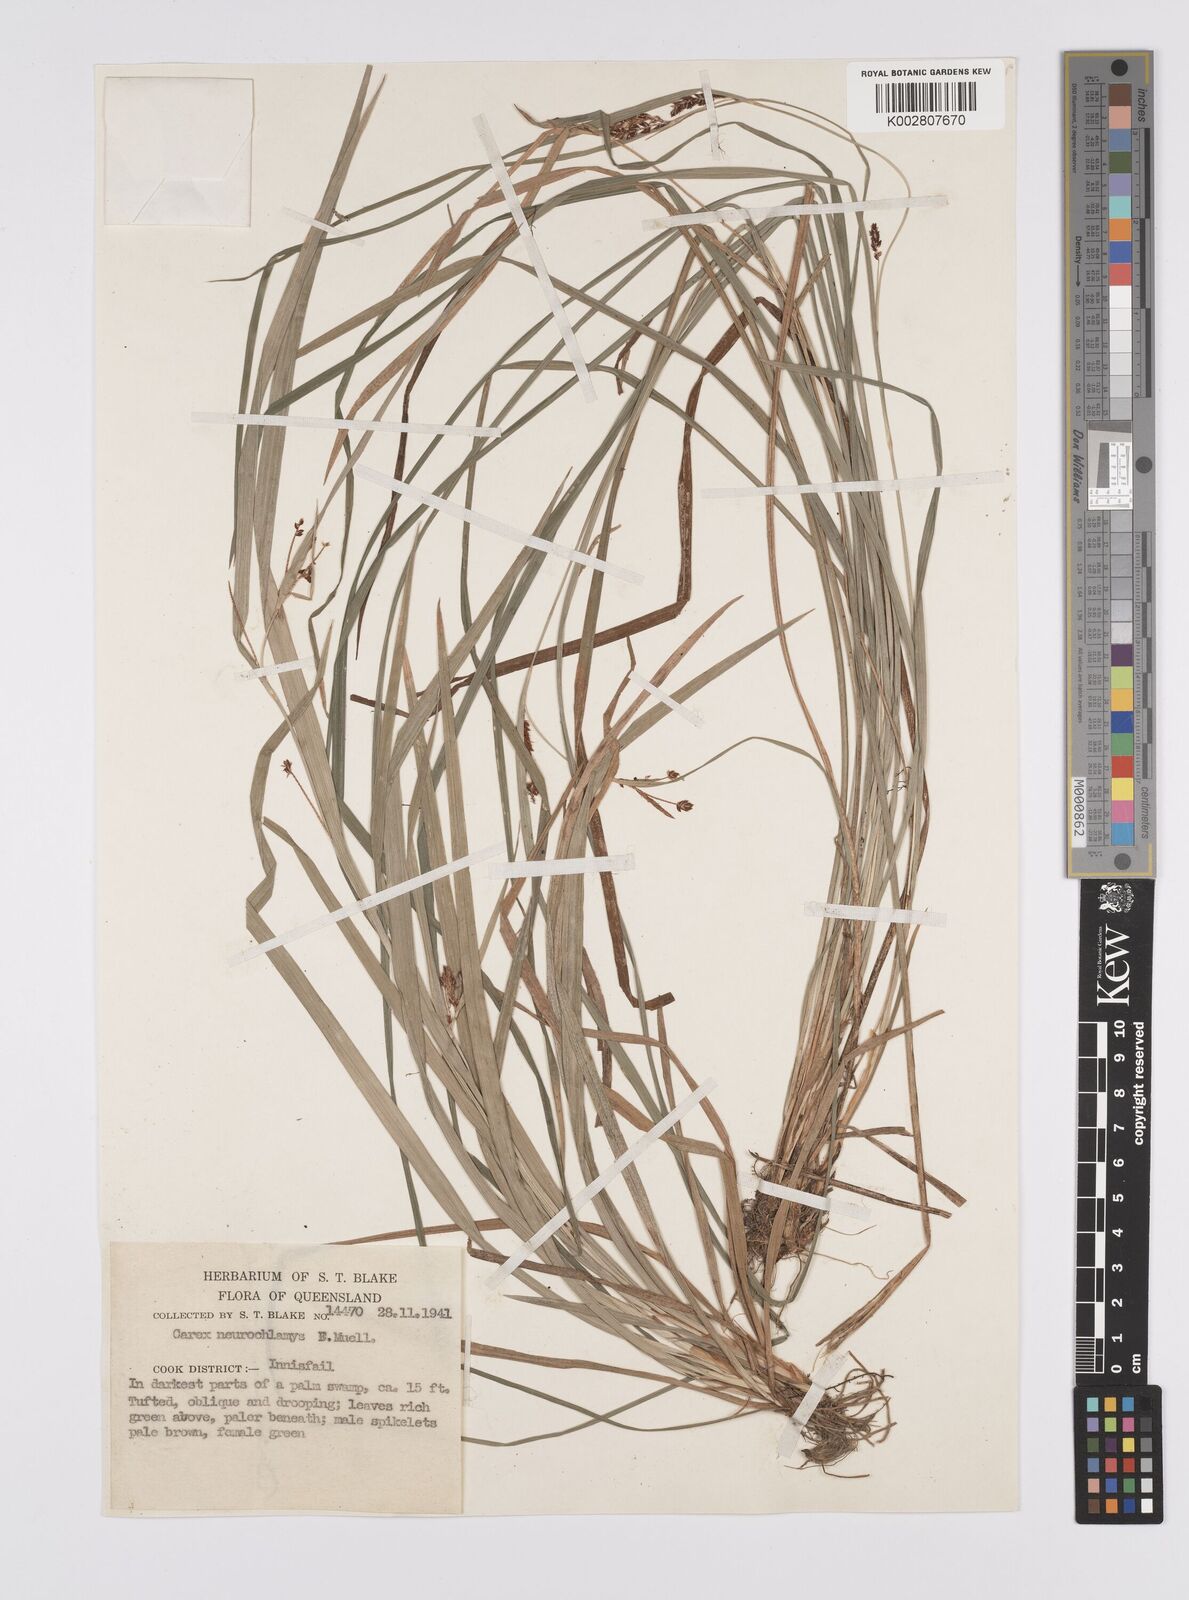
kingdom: Plantae
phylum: Tracheophyta
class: Liliopsida
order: Poales
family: Cyperaceae
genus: Carex
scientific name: Carex maculata
